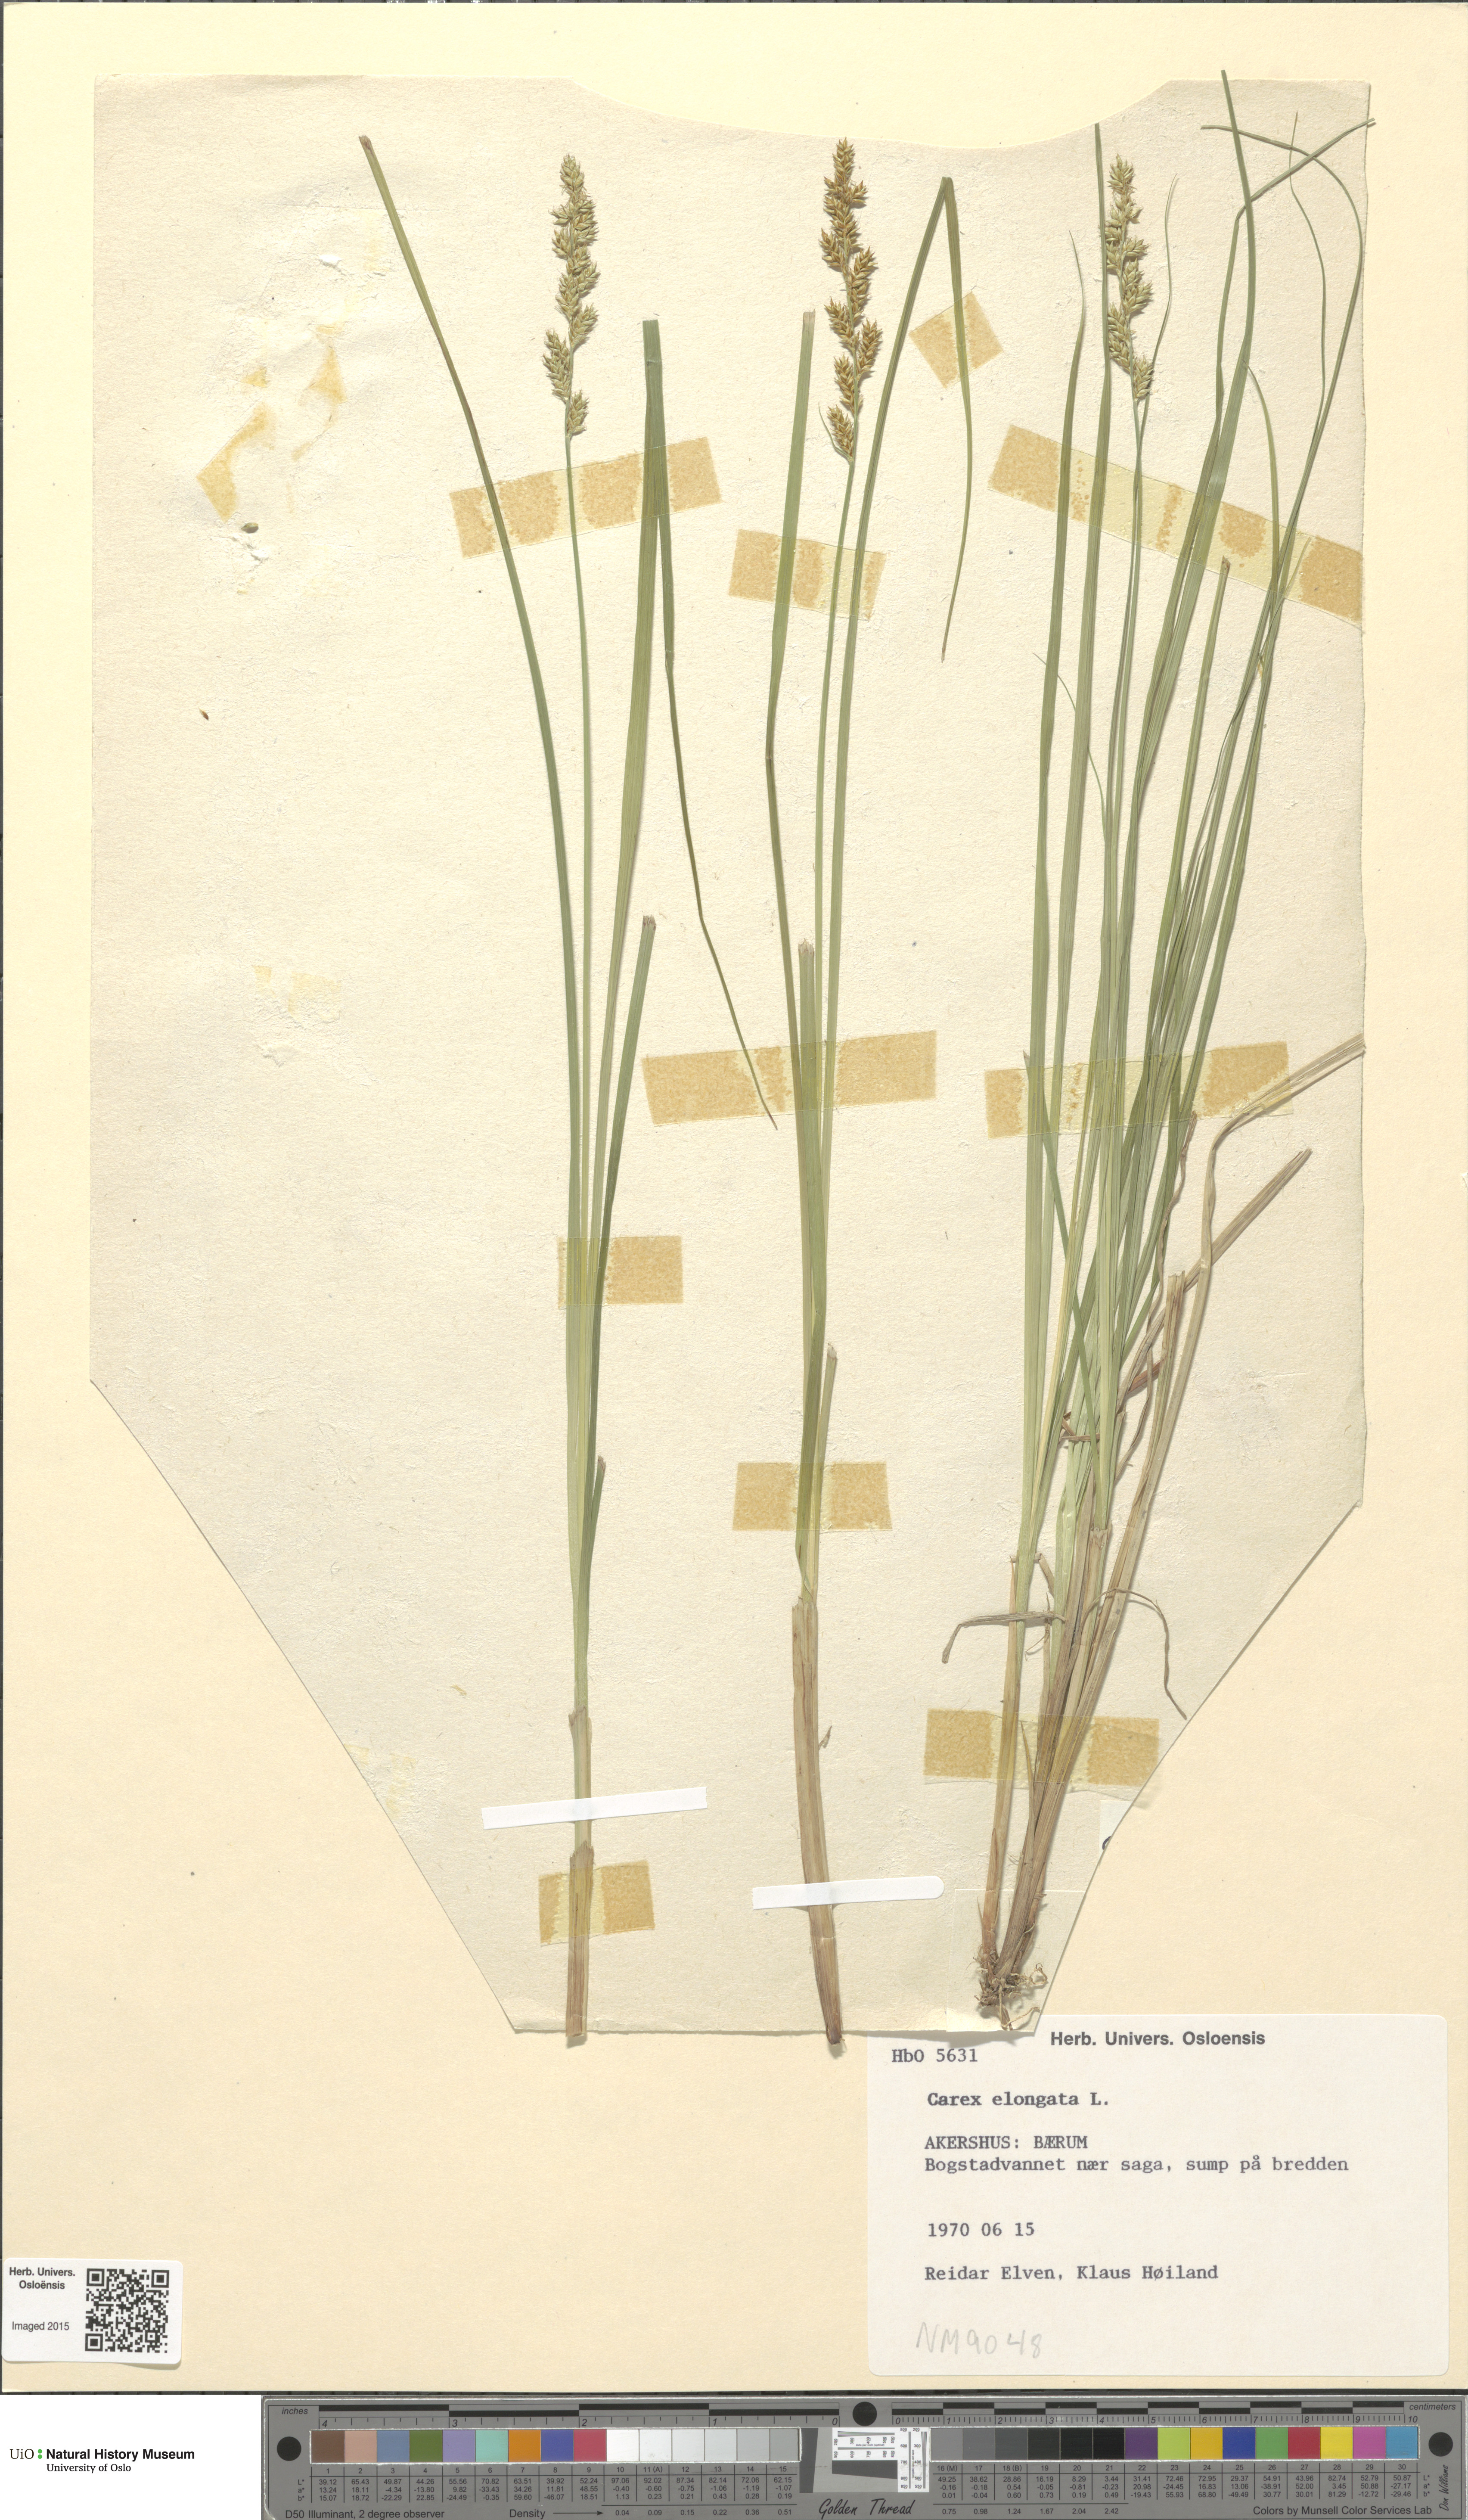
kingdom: Plantae
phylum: Tracheophyta
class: Liliopsida
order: Poales
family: Cyperaceae
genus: Carex
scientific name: Carex elongata
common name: Elongated sedge
